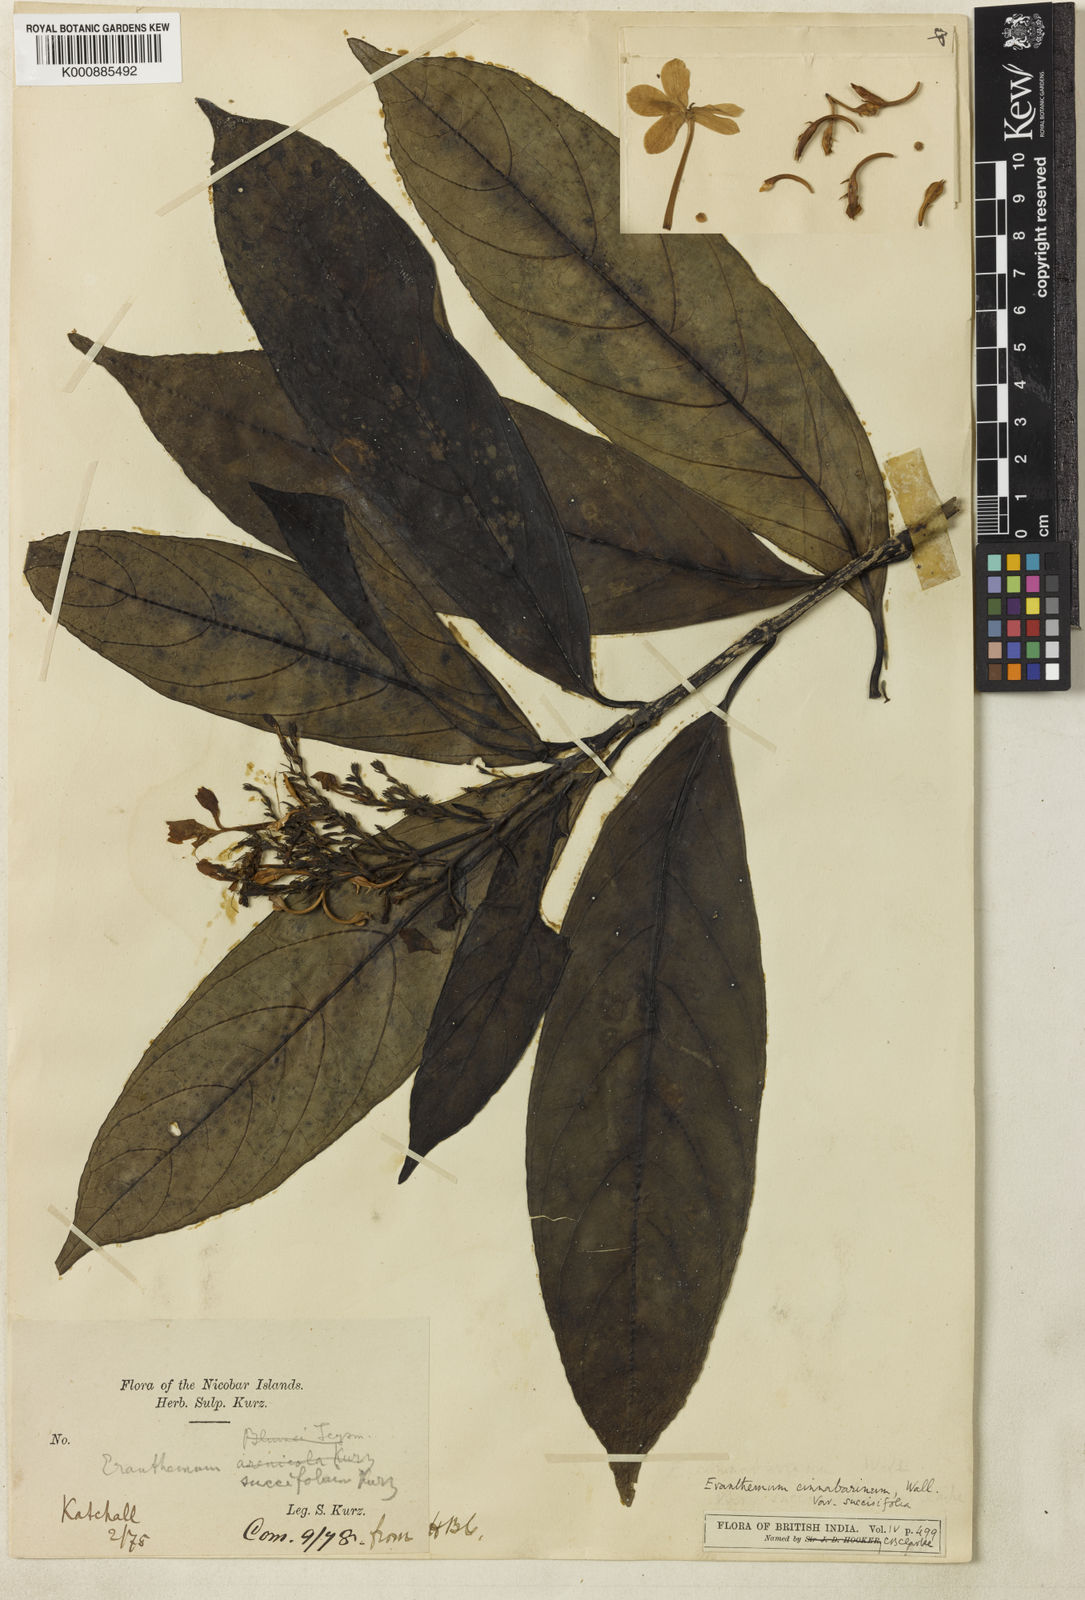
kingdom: Plantae
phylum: Tracheophyta
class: Magnoliopsida
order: Lamiales
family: Acanthaceae
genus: Pseuderanthemum
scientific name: Pseuderanthemum cinnabarinum
